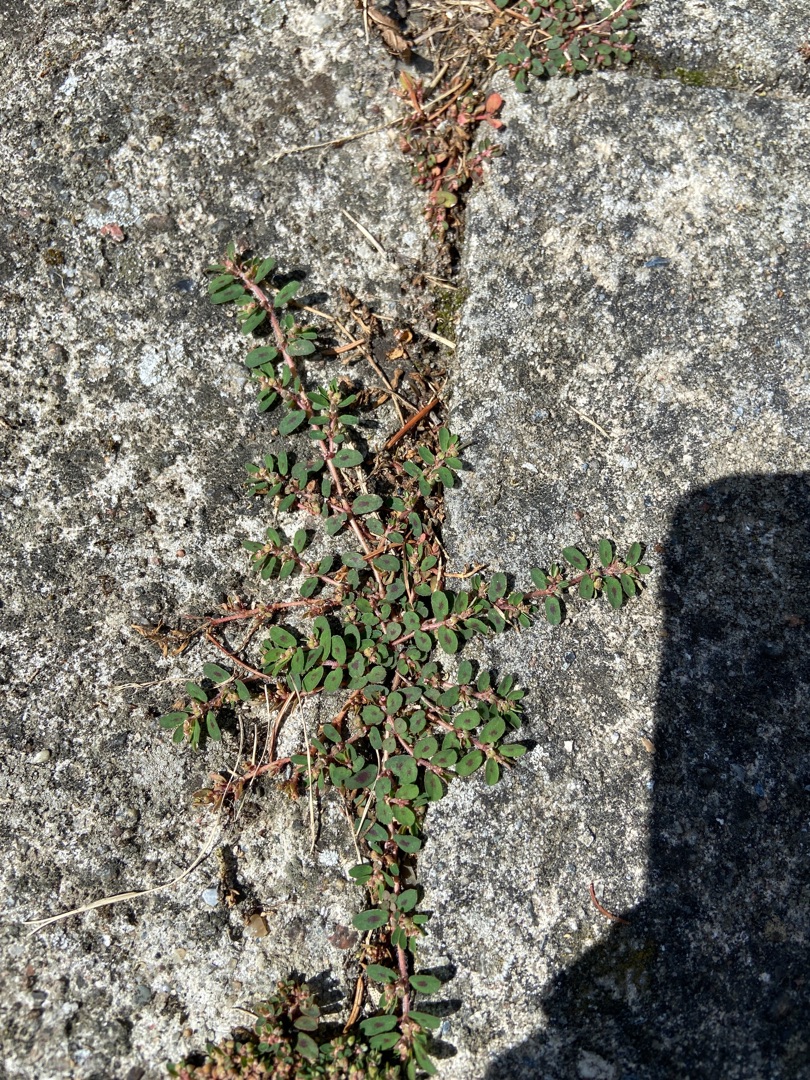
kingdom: Plantae
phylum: Tracheophyta
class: Magnoliopsida
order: Malpighiales
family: Euphorbiaceae
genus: Euphorbia
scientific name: Euphorbia maculata
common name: Plet-vortemælk
